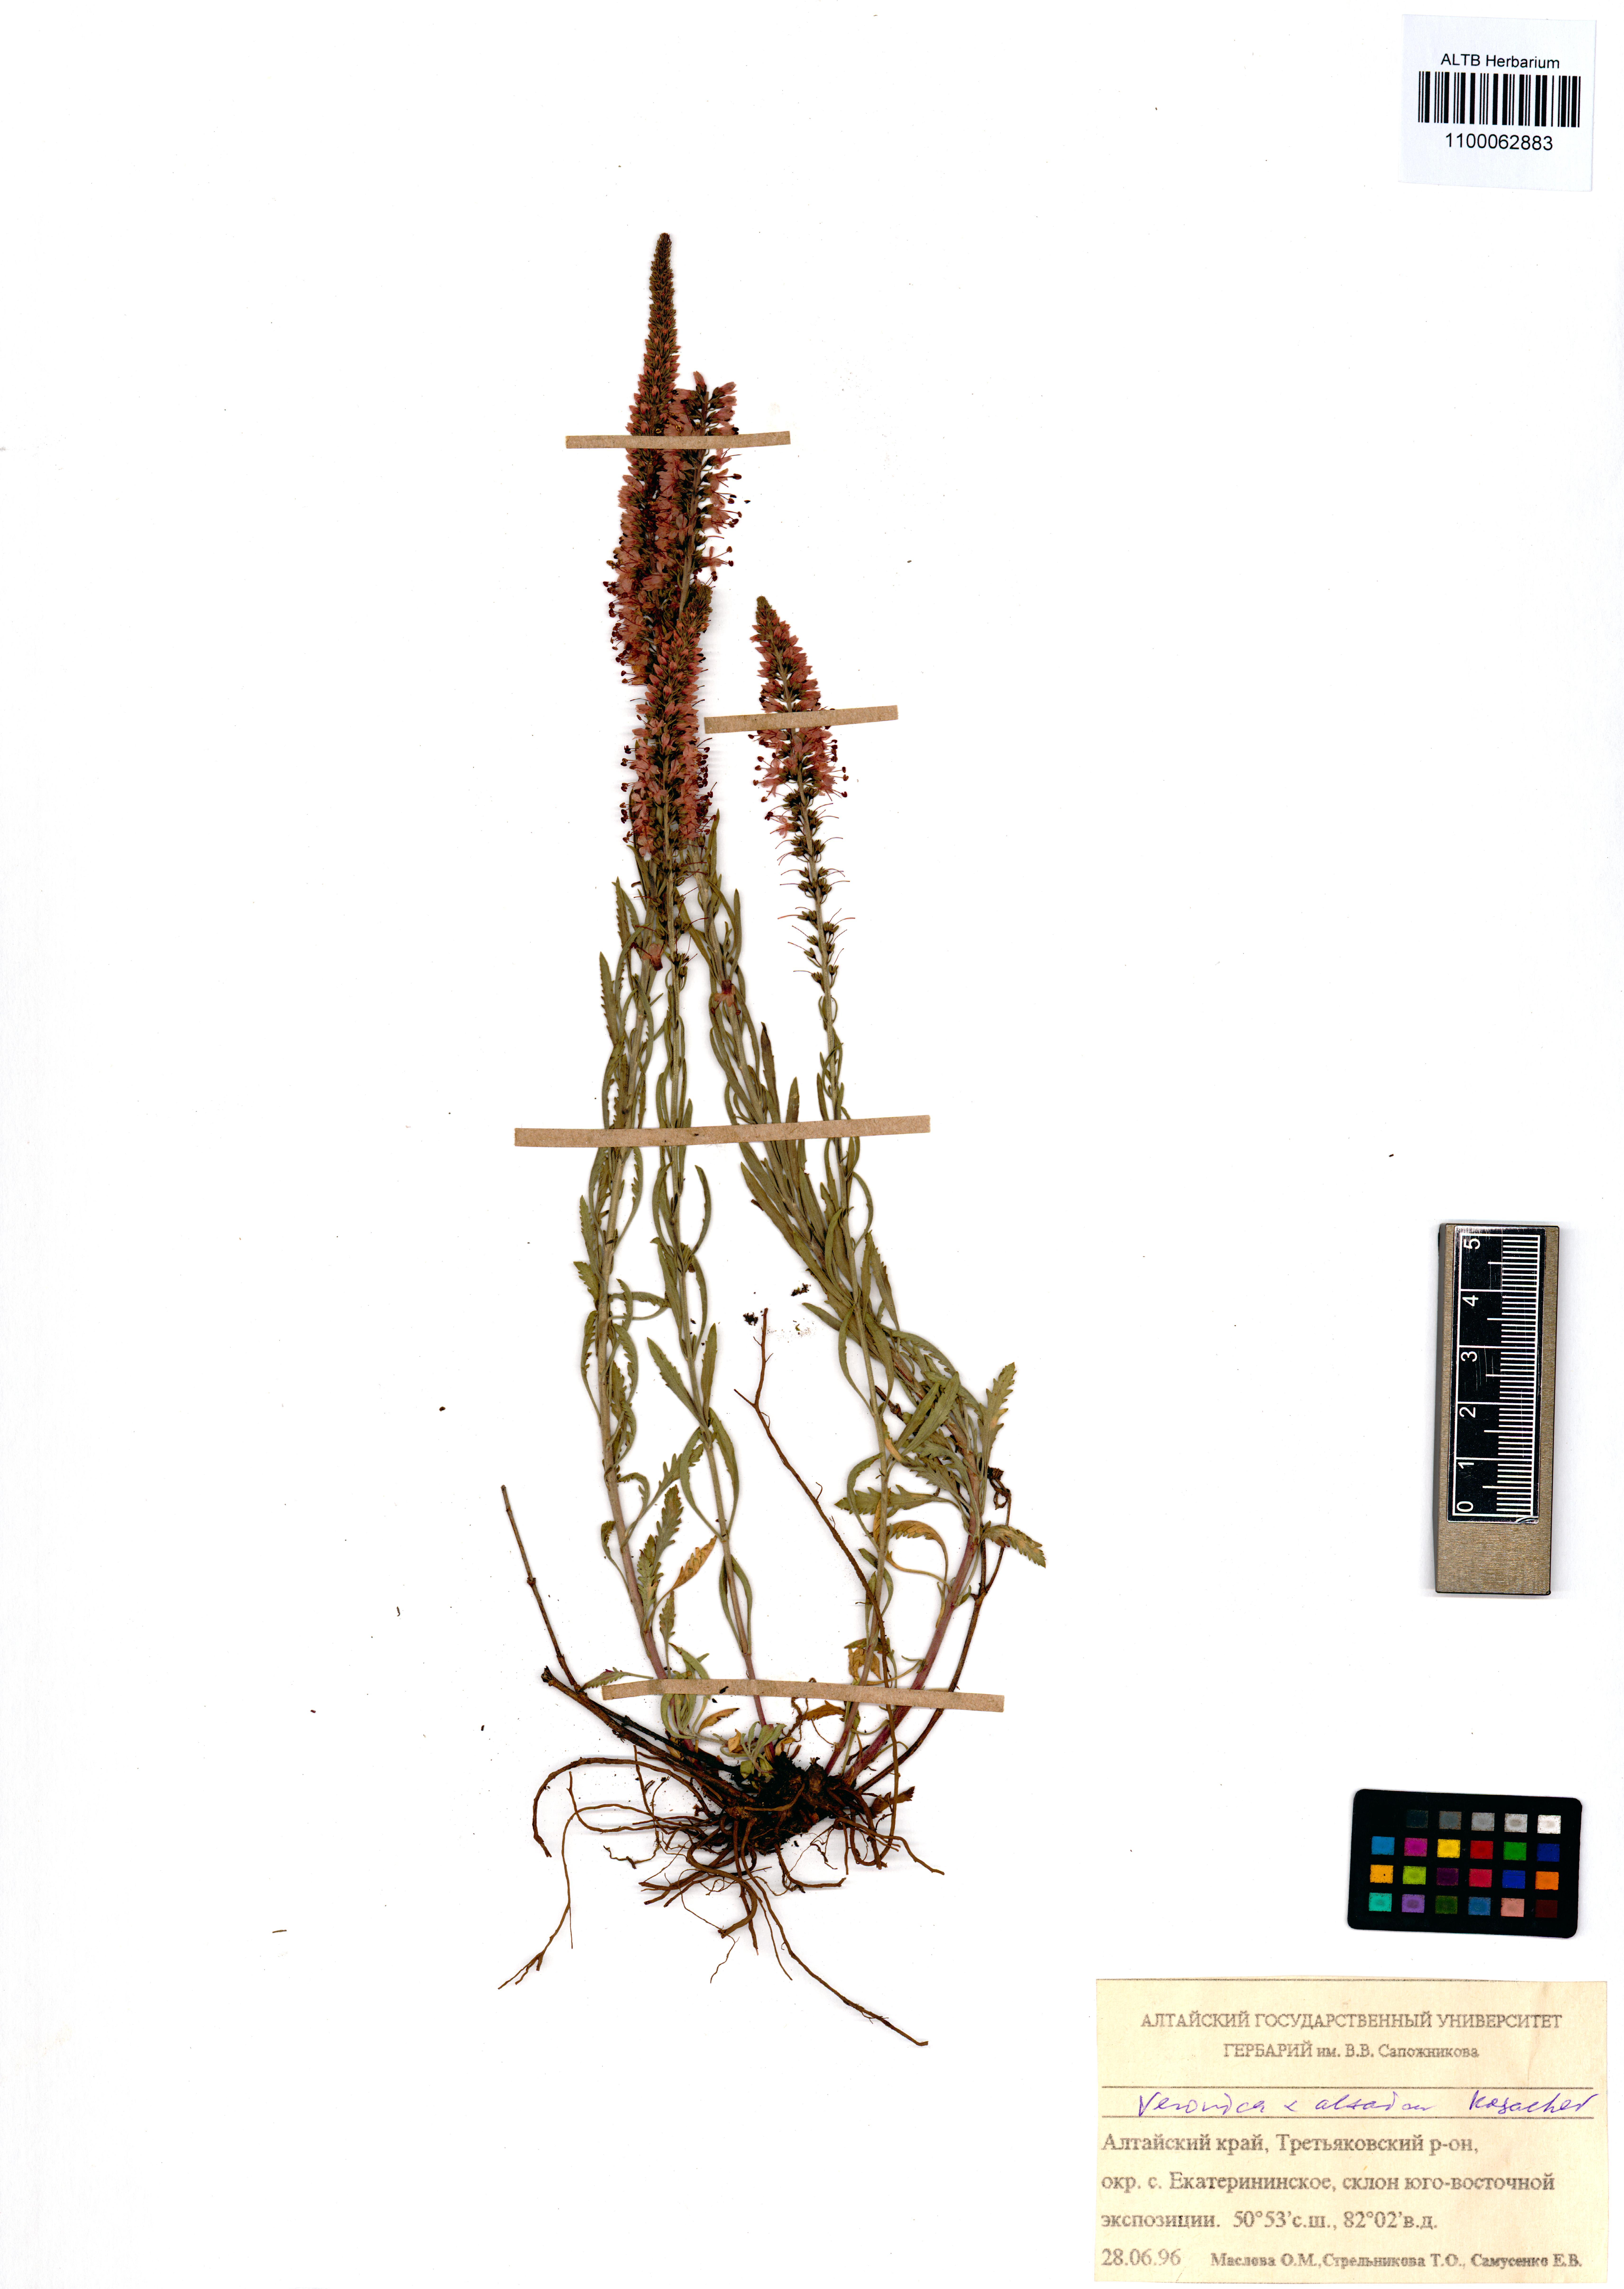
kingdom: Plantae
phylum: Tracheophyta
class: Magnoliopsida
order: Lamiales
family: Plantaginaceae
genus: Veronica
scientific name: Veronica altaica
